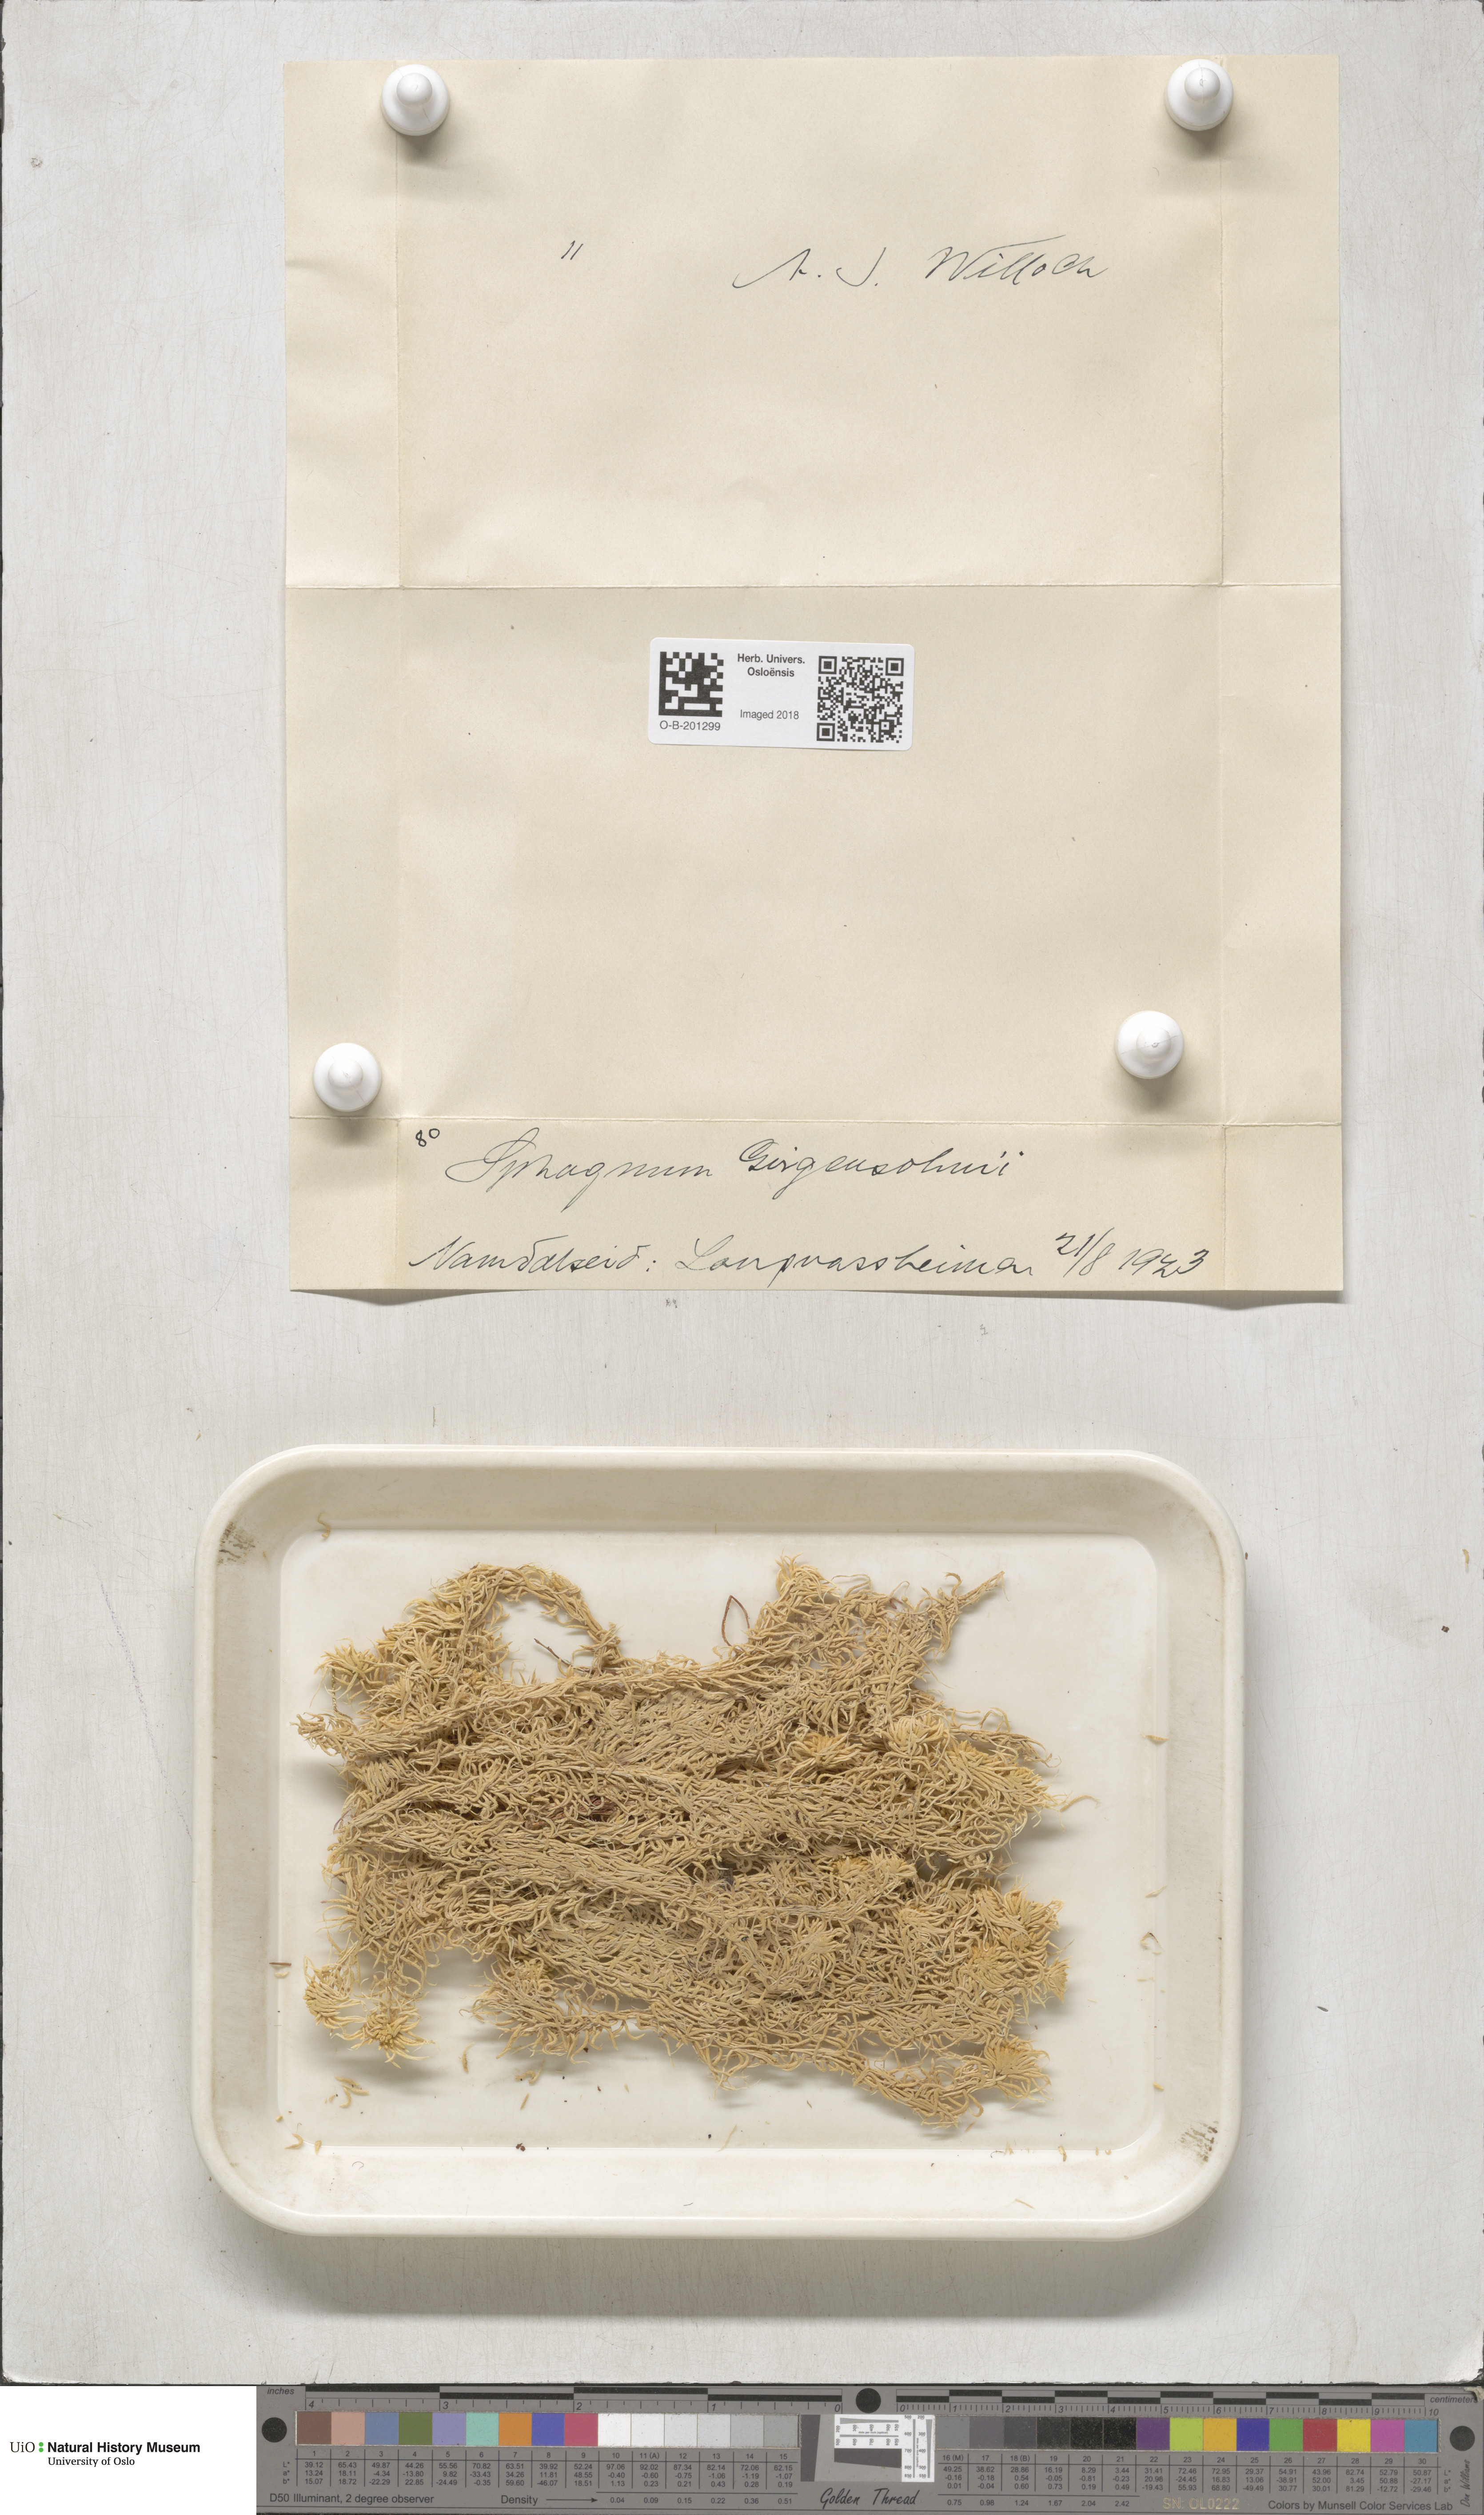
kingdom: Plantae
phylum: Bryophyta
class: Sphagnopsida
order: Sphagnales
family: Sphagnaceae
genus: Sphagnum
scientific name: Sphagnum girgensohnii
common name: Girgensohn's peat moss
